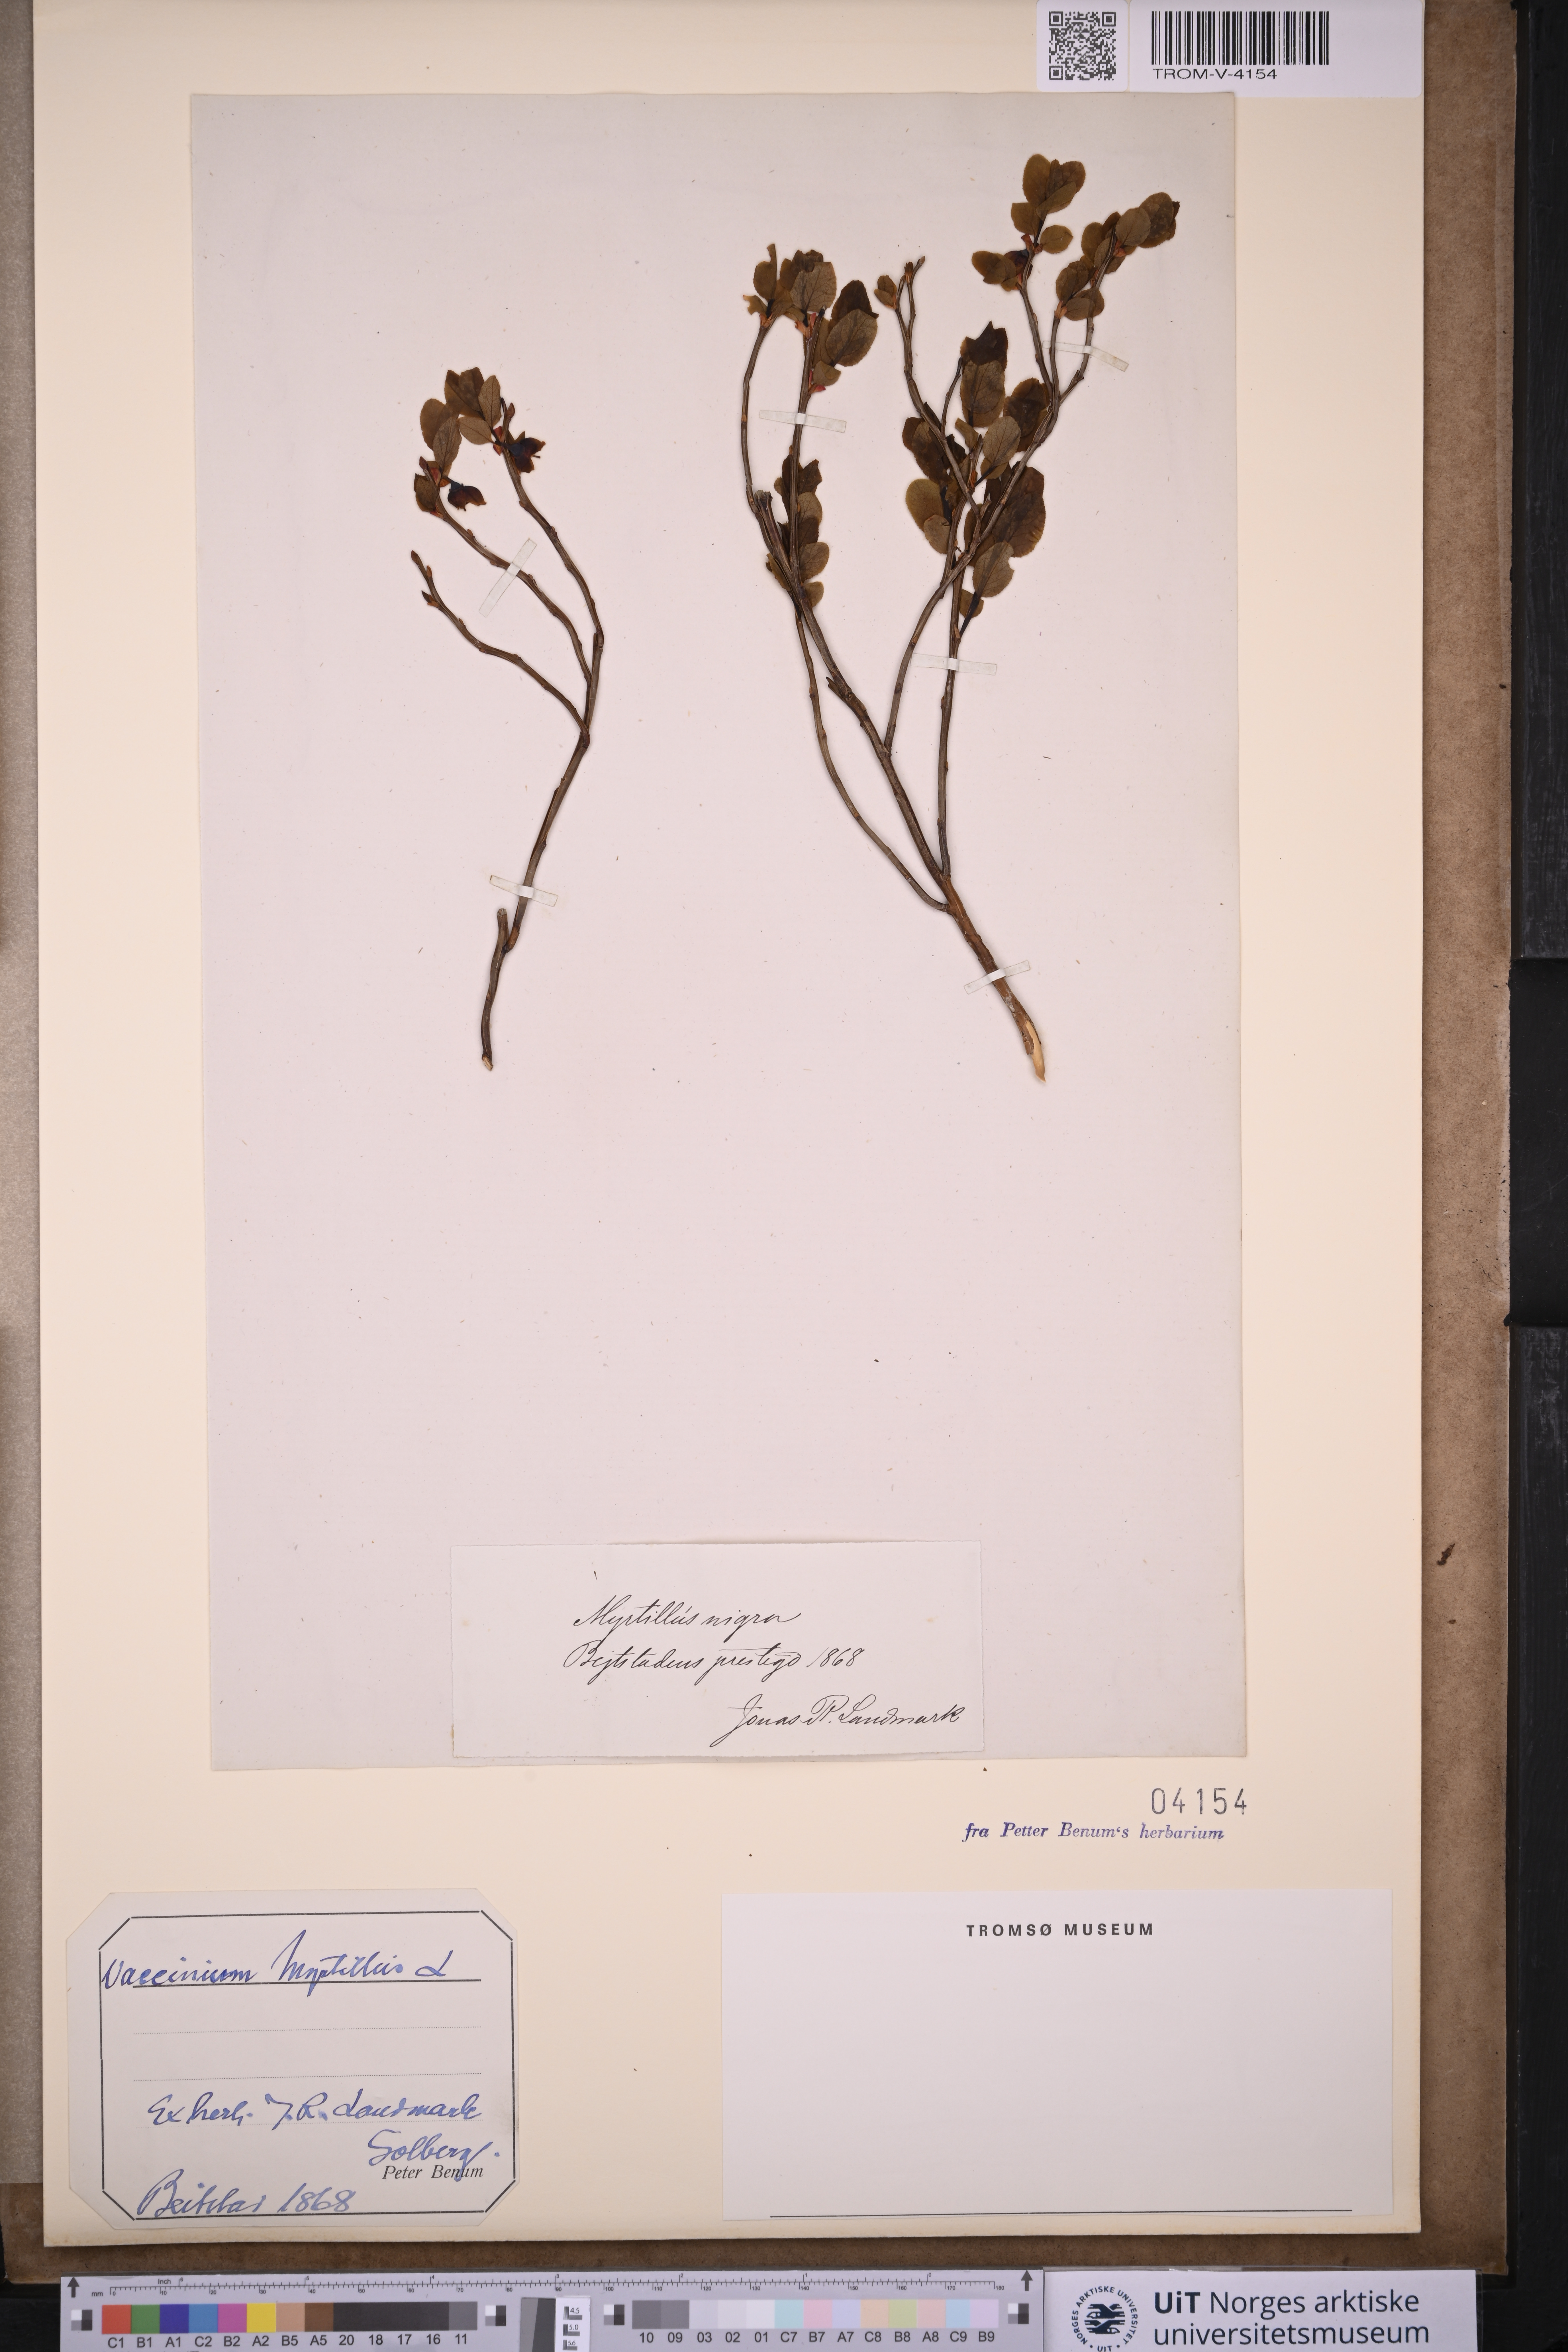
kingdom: Plantae
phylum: Tracheophyta
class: Magnoliopsida
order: Ericales
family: Ericaceae
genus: Vaccinium
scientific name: Vaccinium myrtillus
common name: Bilberry
